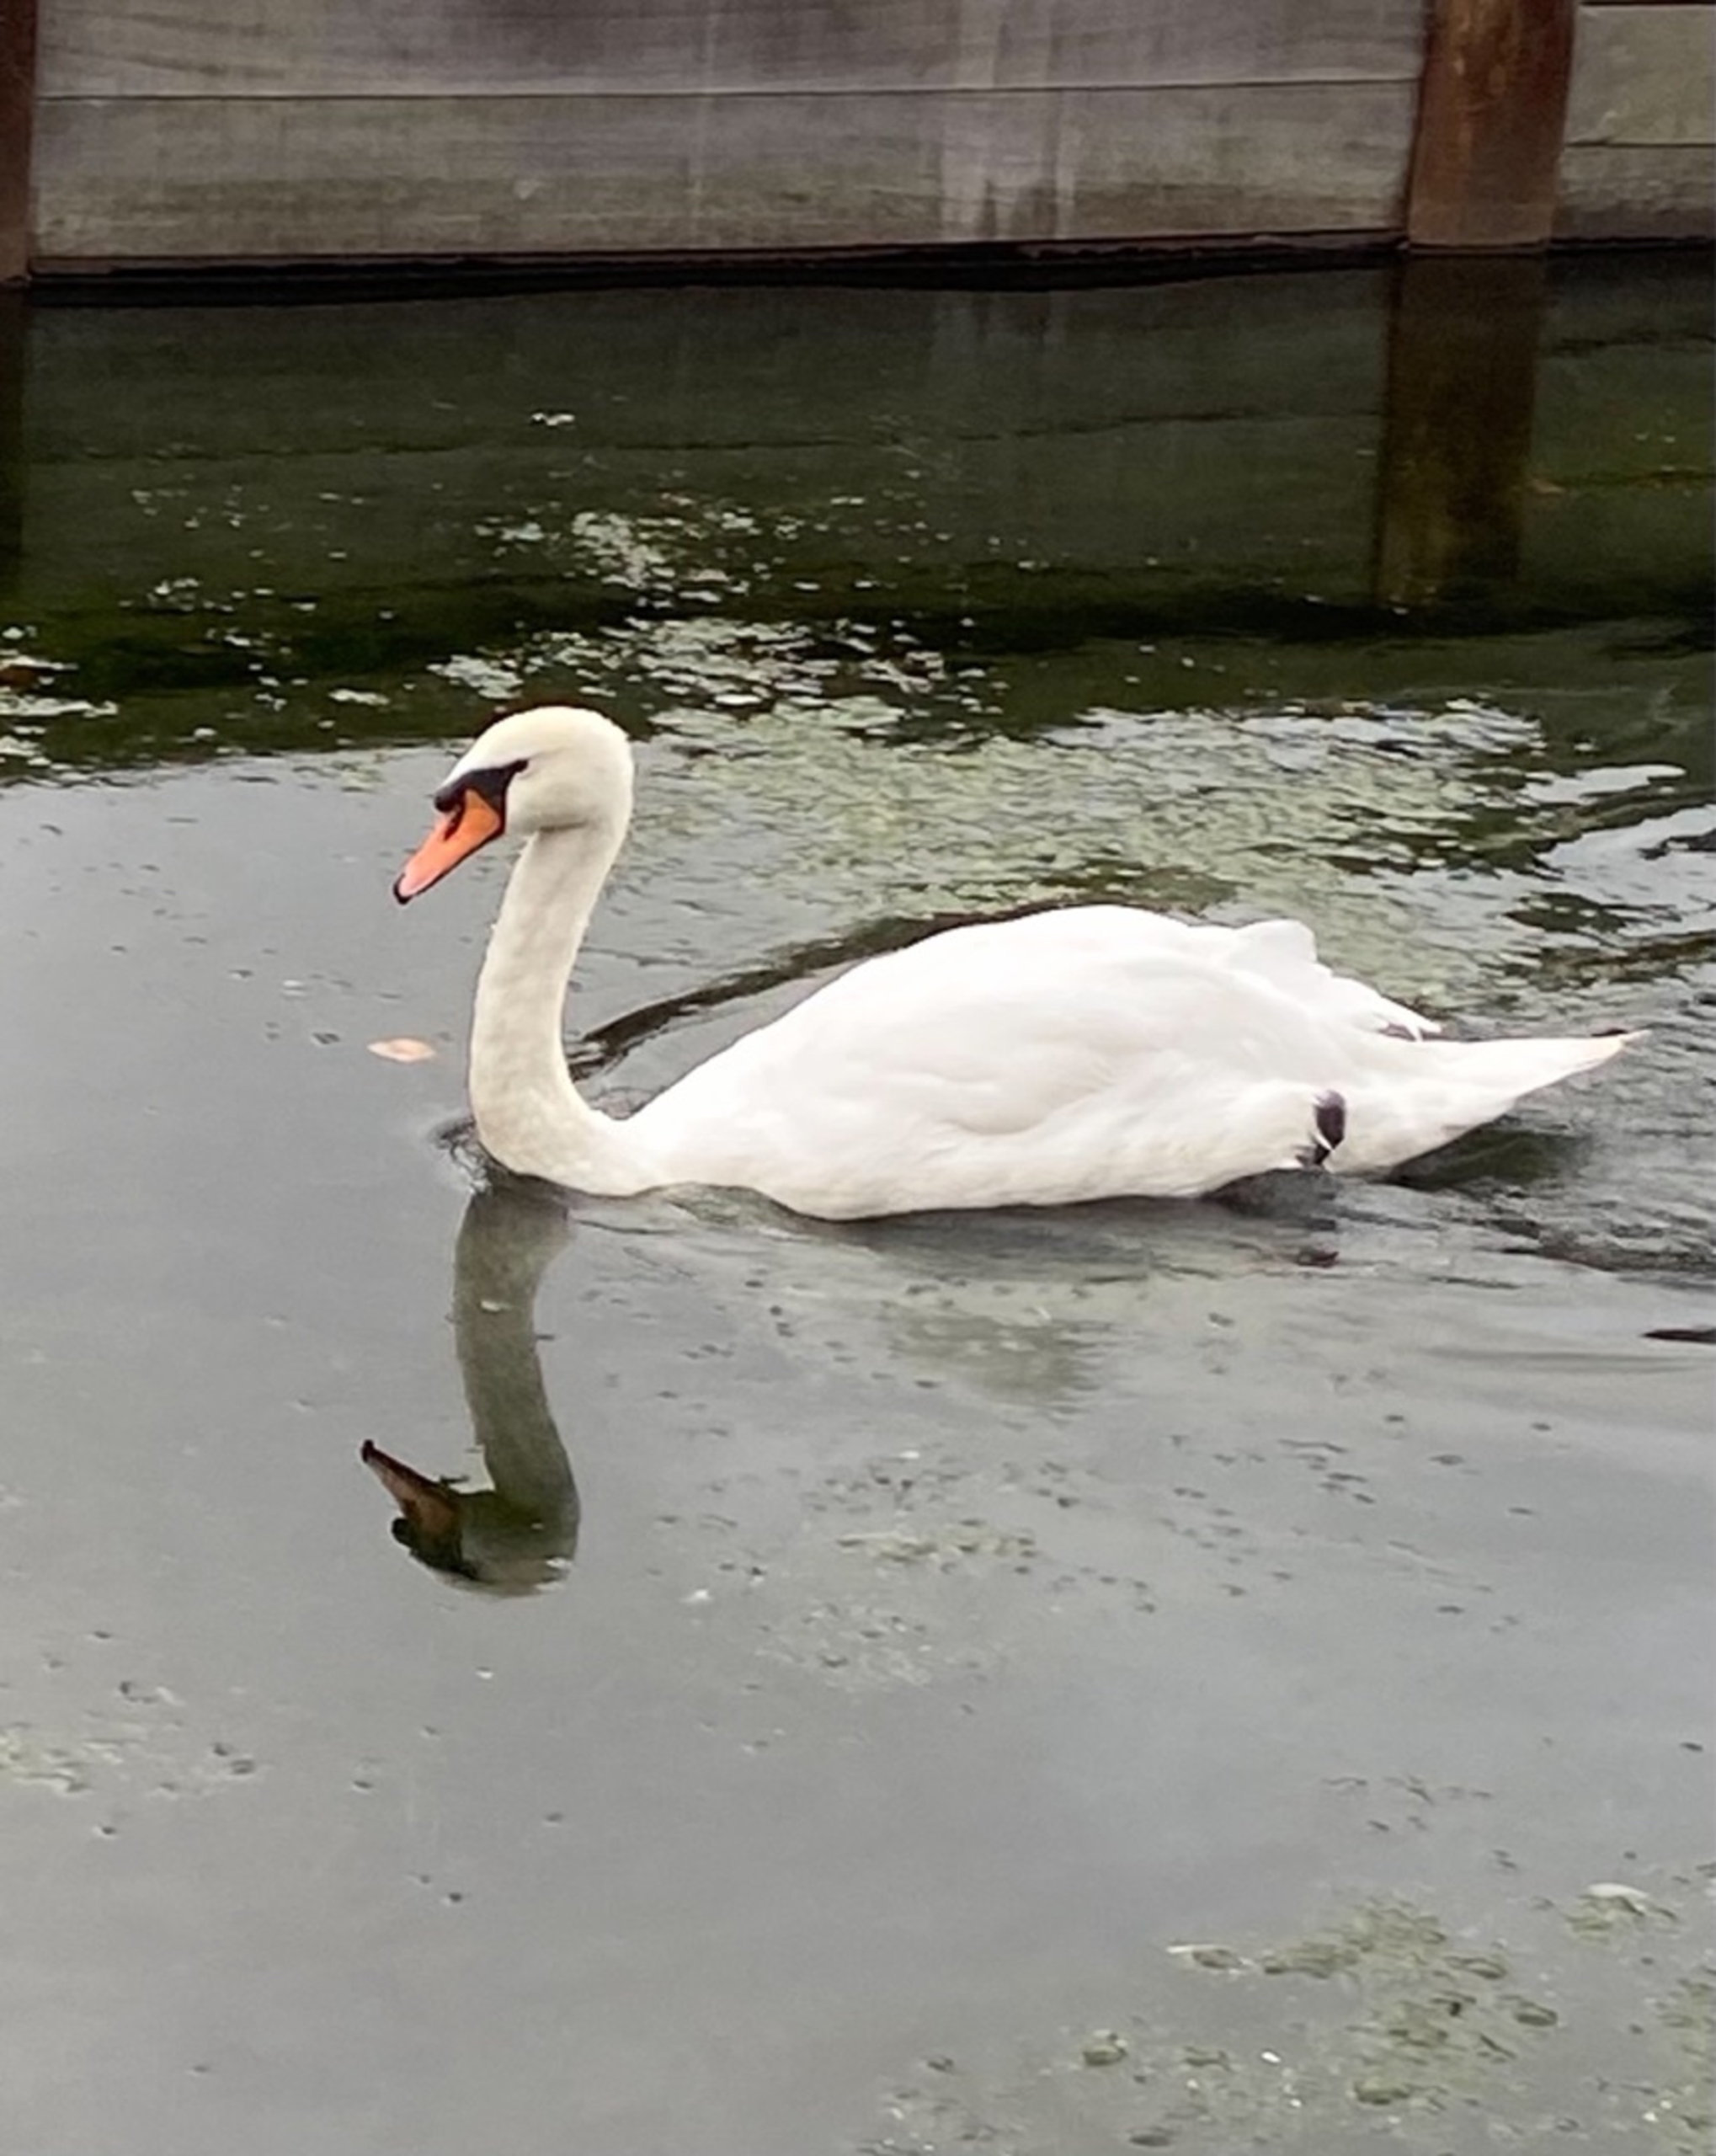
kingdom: Animalia
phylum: Chordata
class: Aves
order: Anseriformes
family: Anatidae
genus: Cygnus
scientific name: Cygnus olor
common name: Knopsvane
